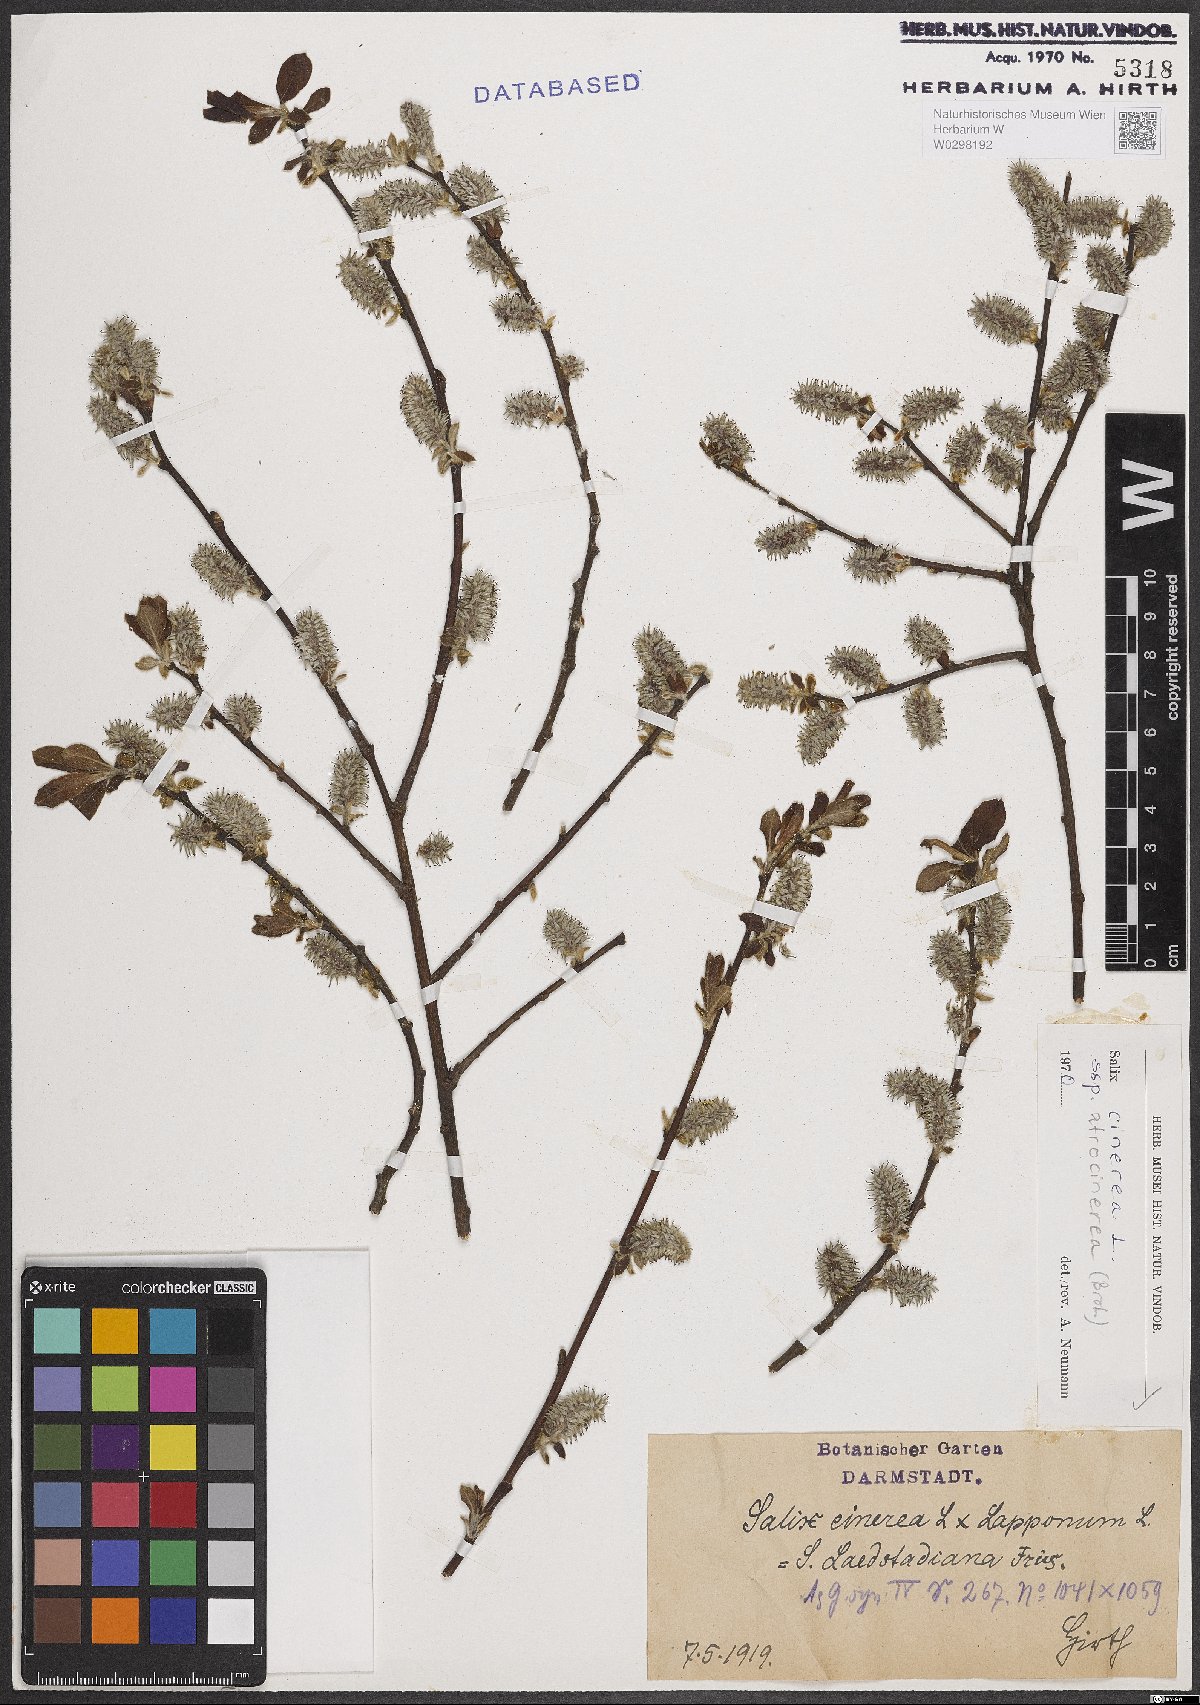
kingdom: Plantae
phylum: Tracheophyta
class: Magnoliopsida
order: Malpighiales
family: Salicaceae
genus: Salix
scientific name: Salix atrocinerea
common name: Rusty willow
